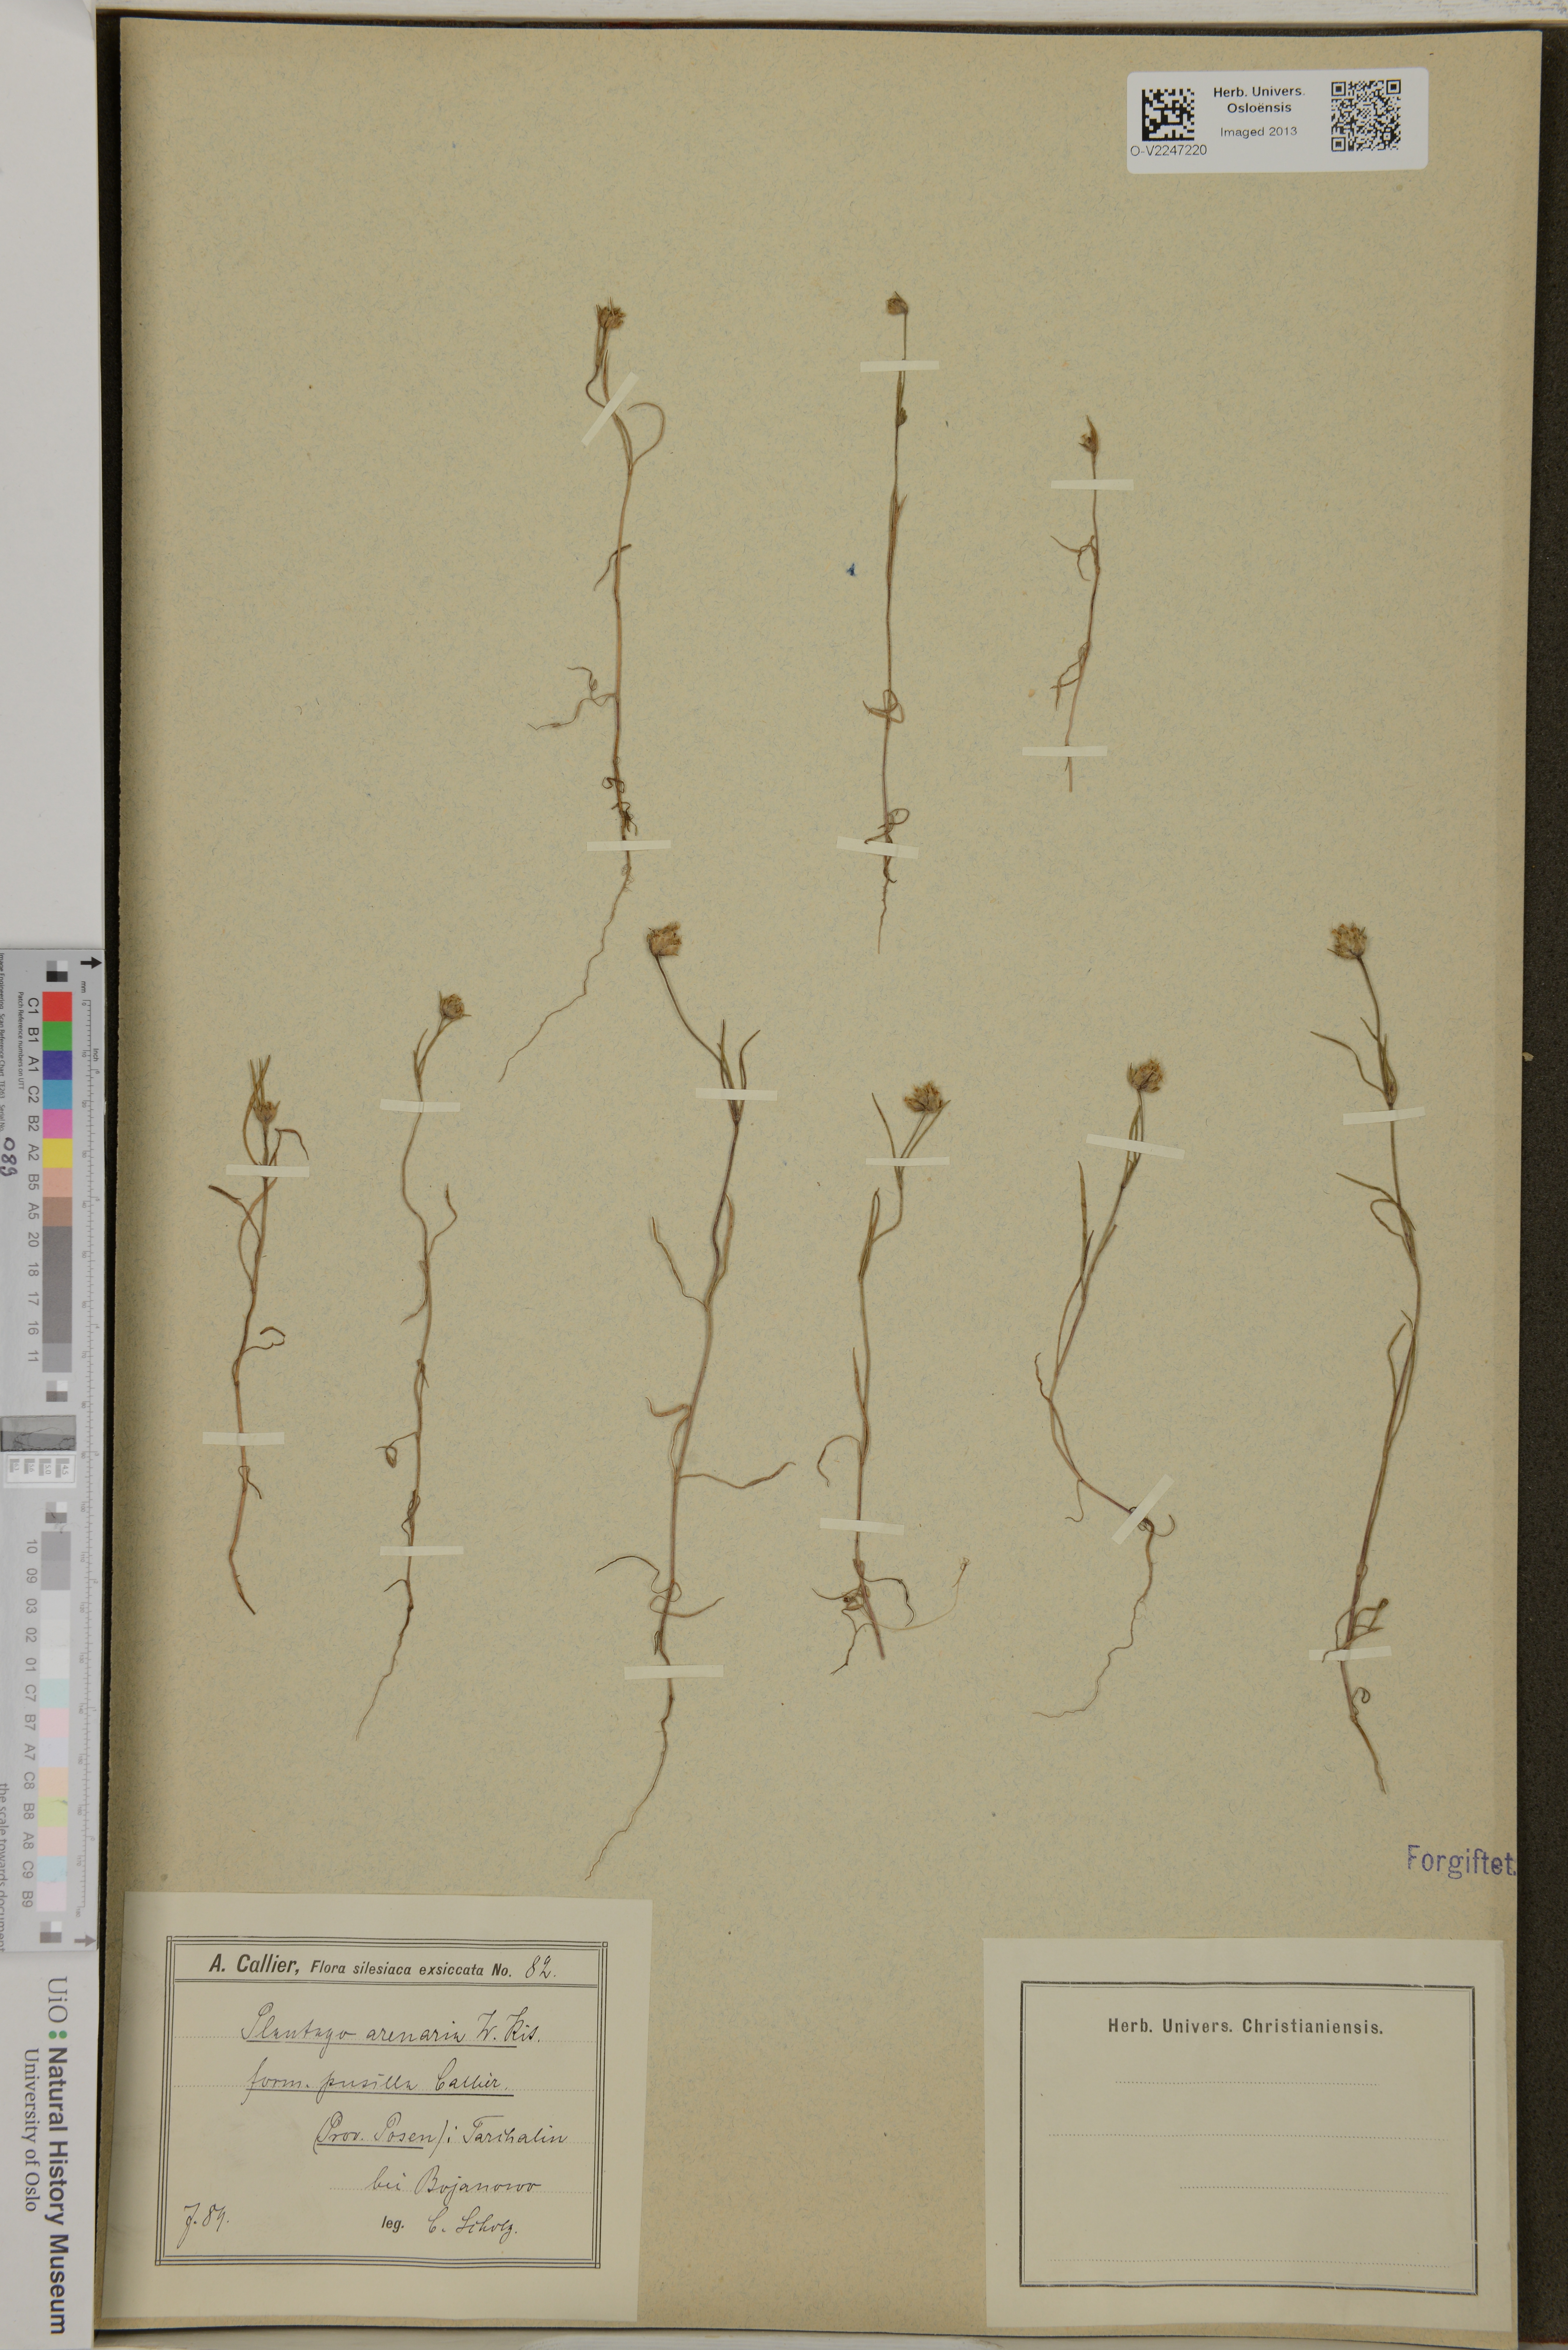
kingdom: Plantae
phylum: Tracheophyta
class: Magnoliopsida
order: Lamiales
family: Plantaginaceae
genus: Plantago
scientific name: Plantago arenaria
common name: Branched plantain
